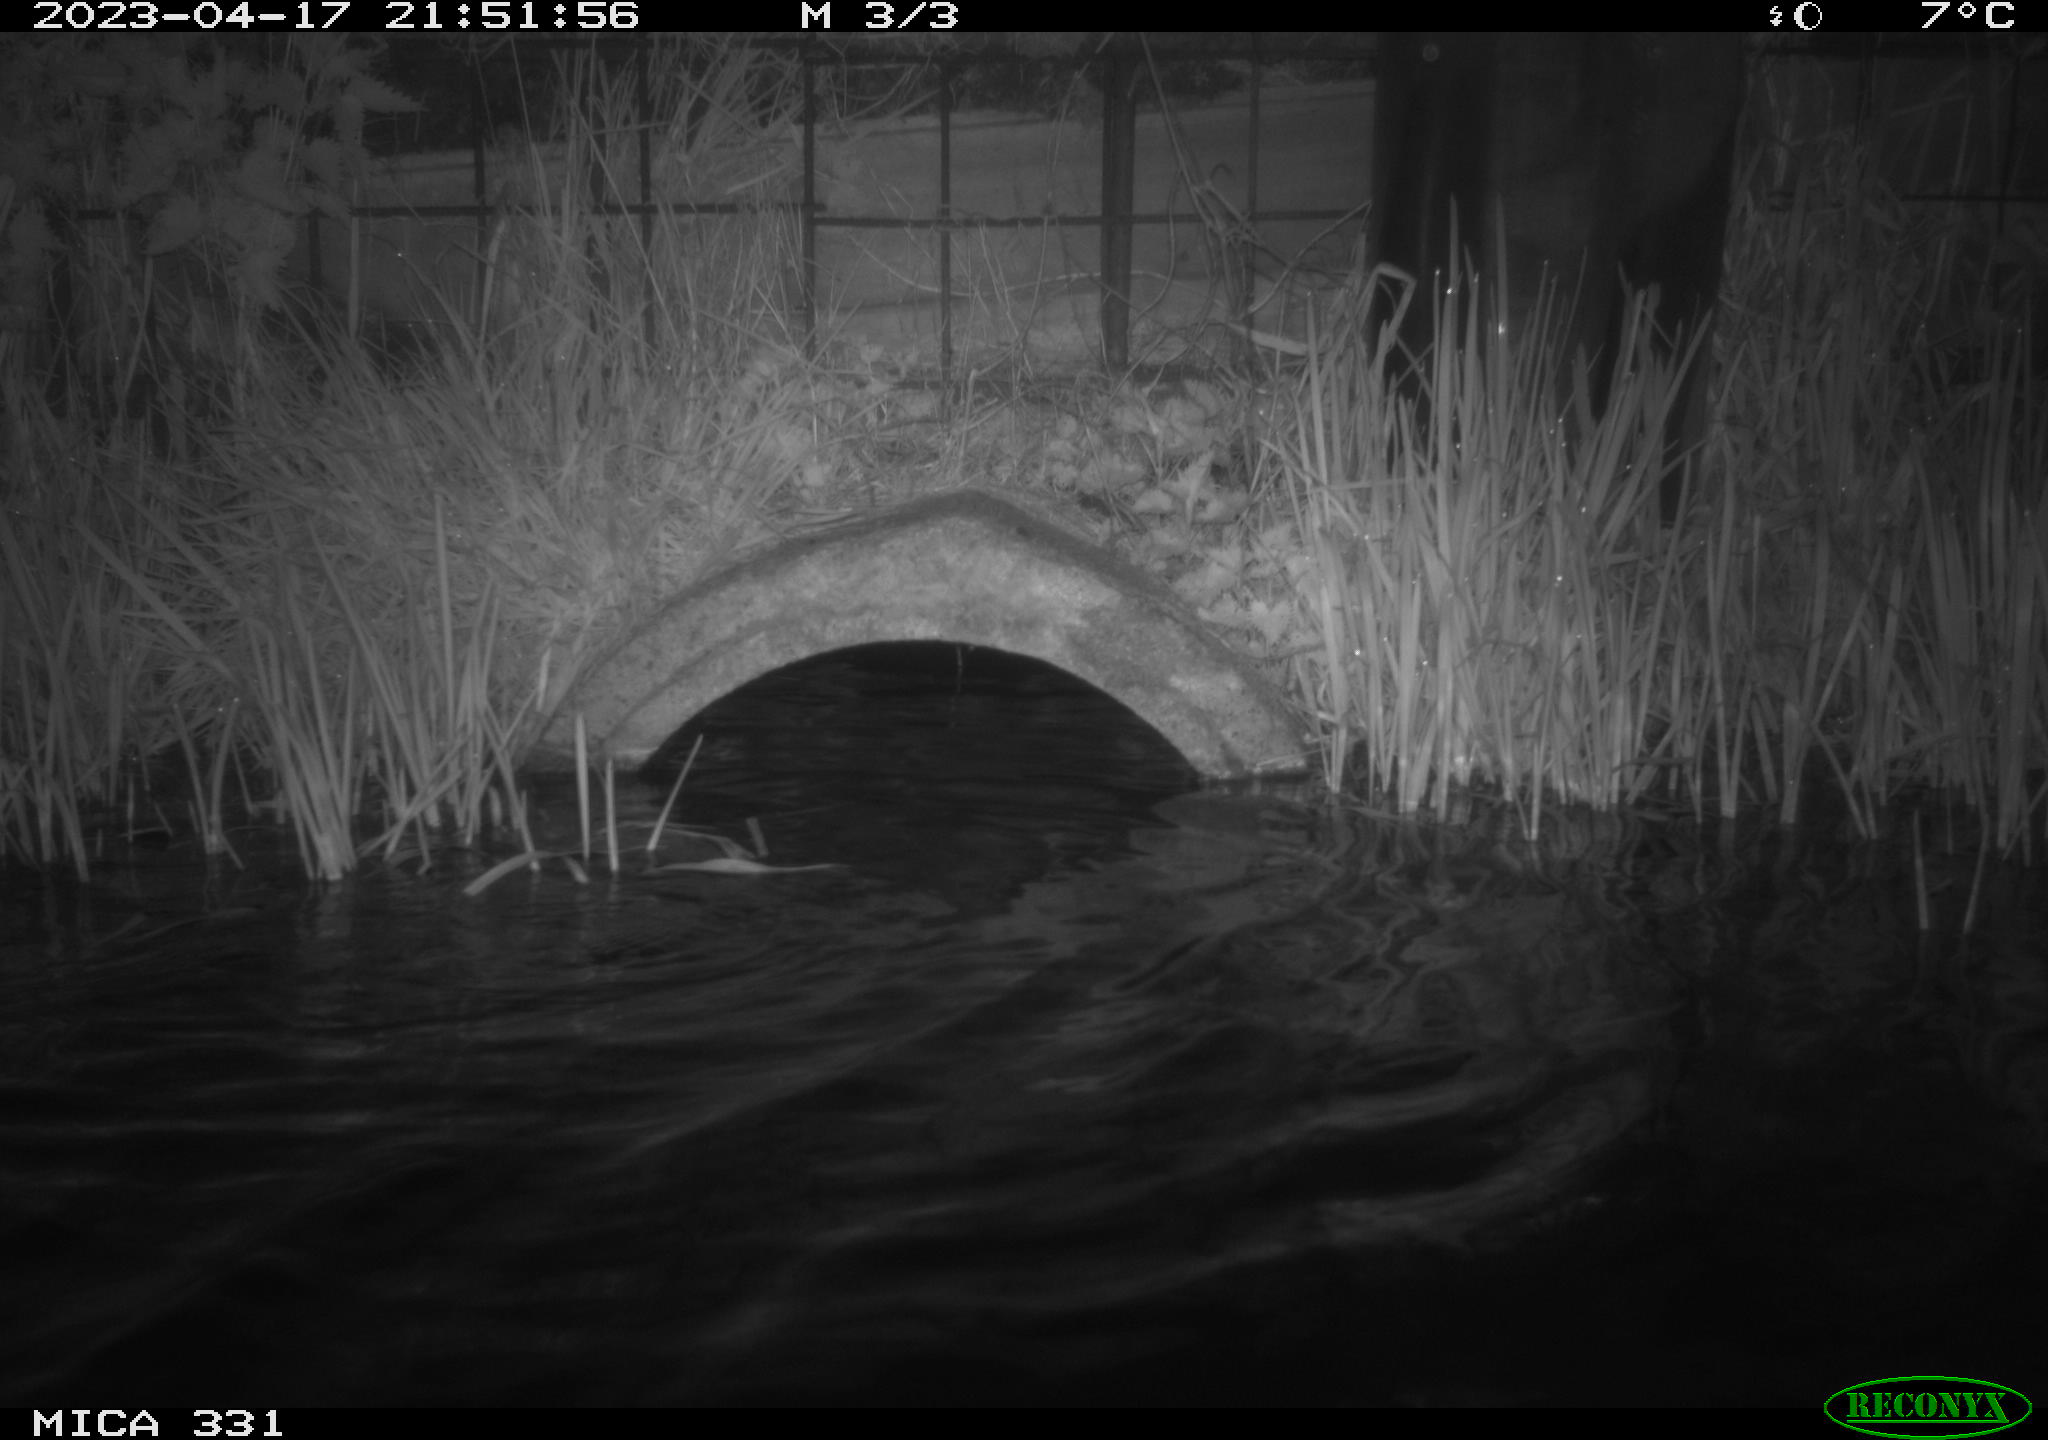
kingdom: Animalia
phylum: Chordata
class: Aves
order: Anseriformes
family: Anatidae
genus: Anas
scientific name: Anas platyrhynchos
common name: Mallard
